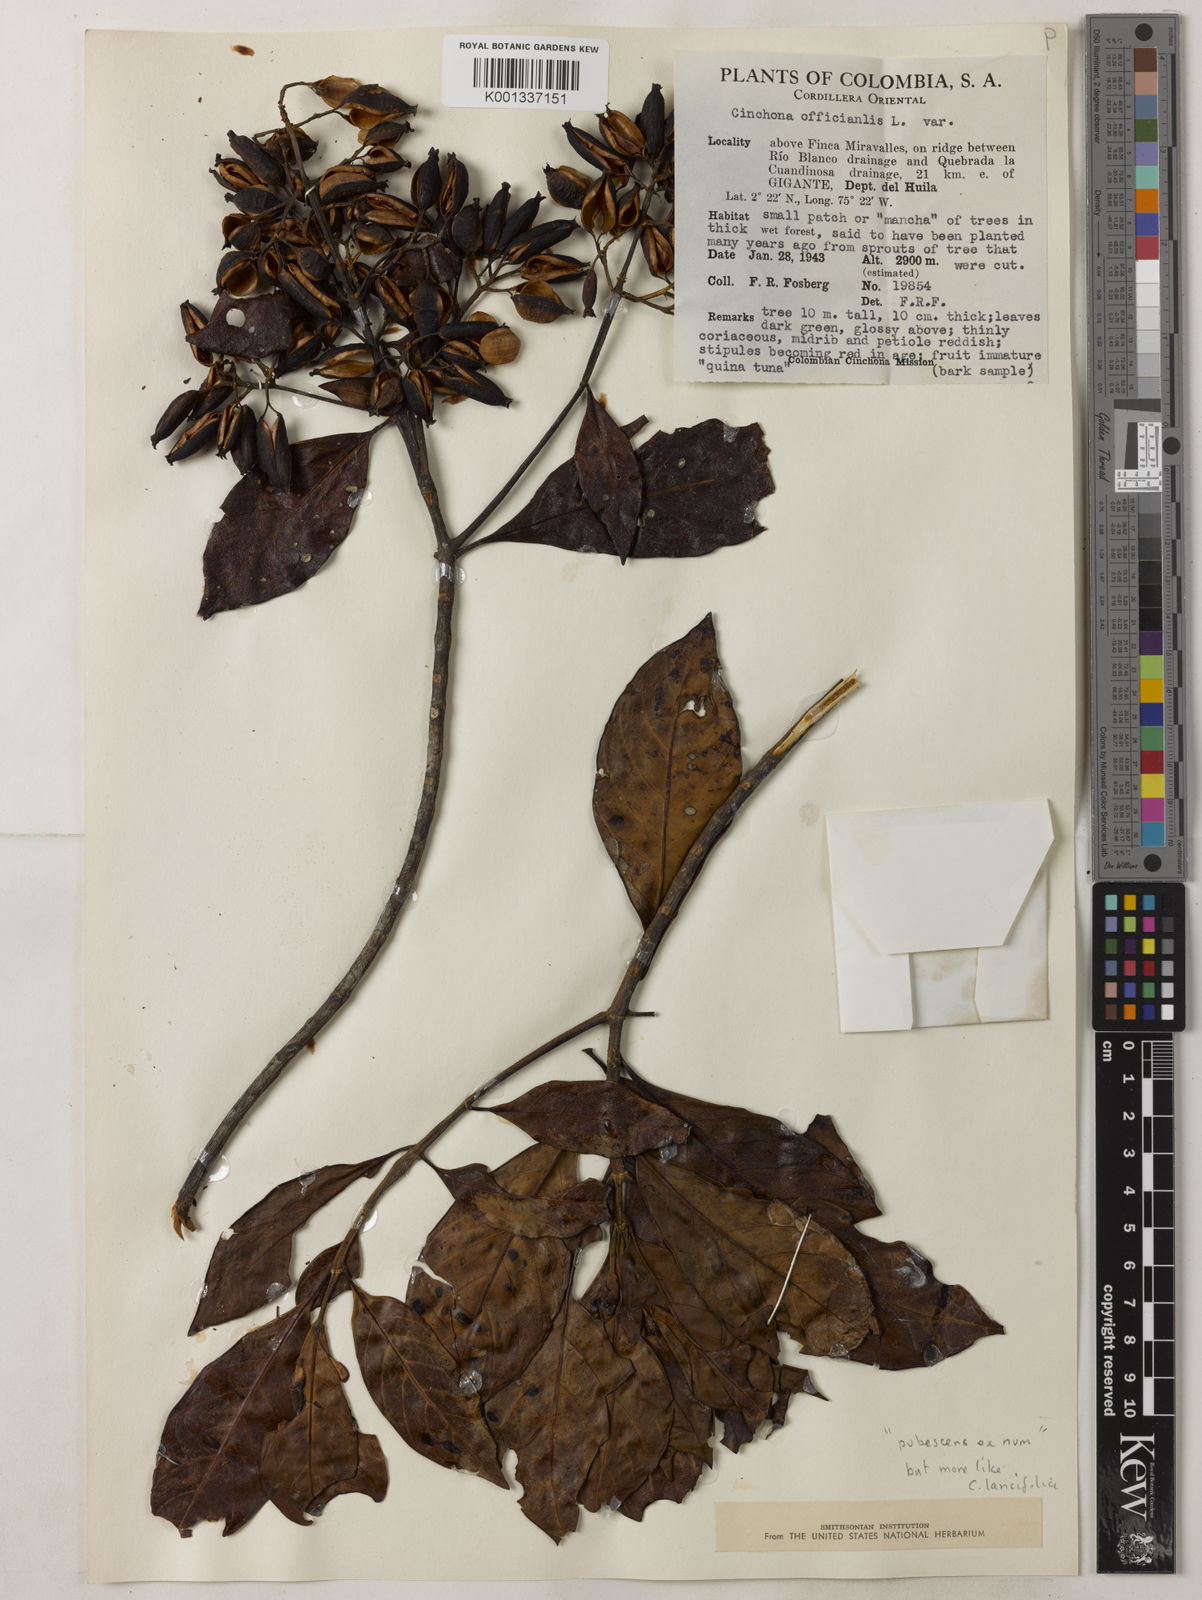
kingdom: Plantae
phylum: Tracheophyta
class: Magnoliopsida
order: Gentianales
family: Rubiaceae
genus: Cinchona
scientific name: Cinchona lancifolia
